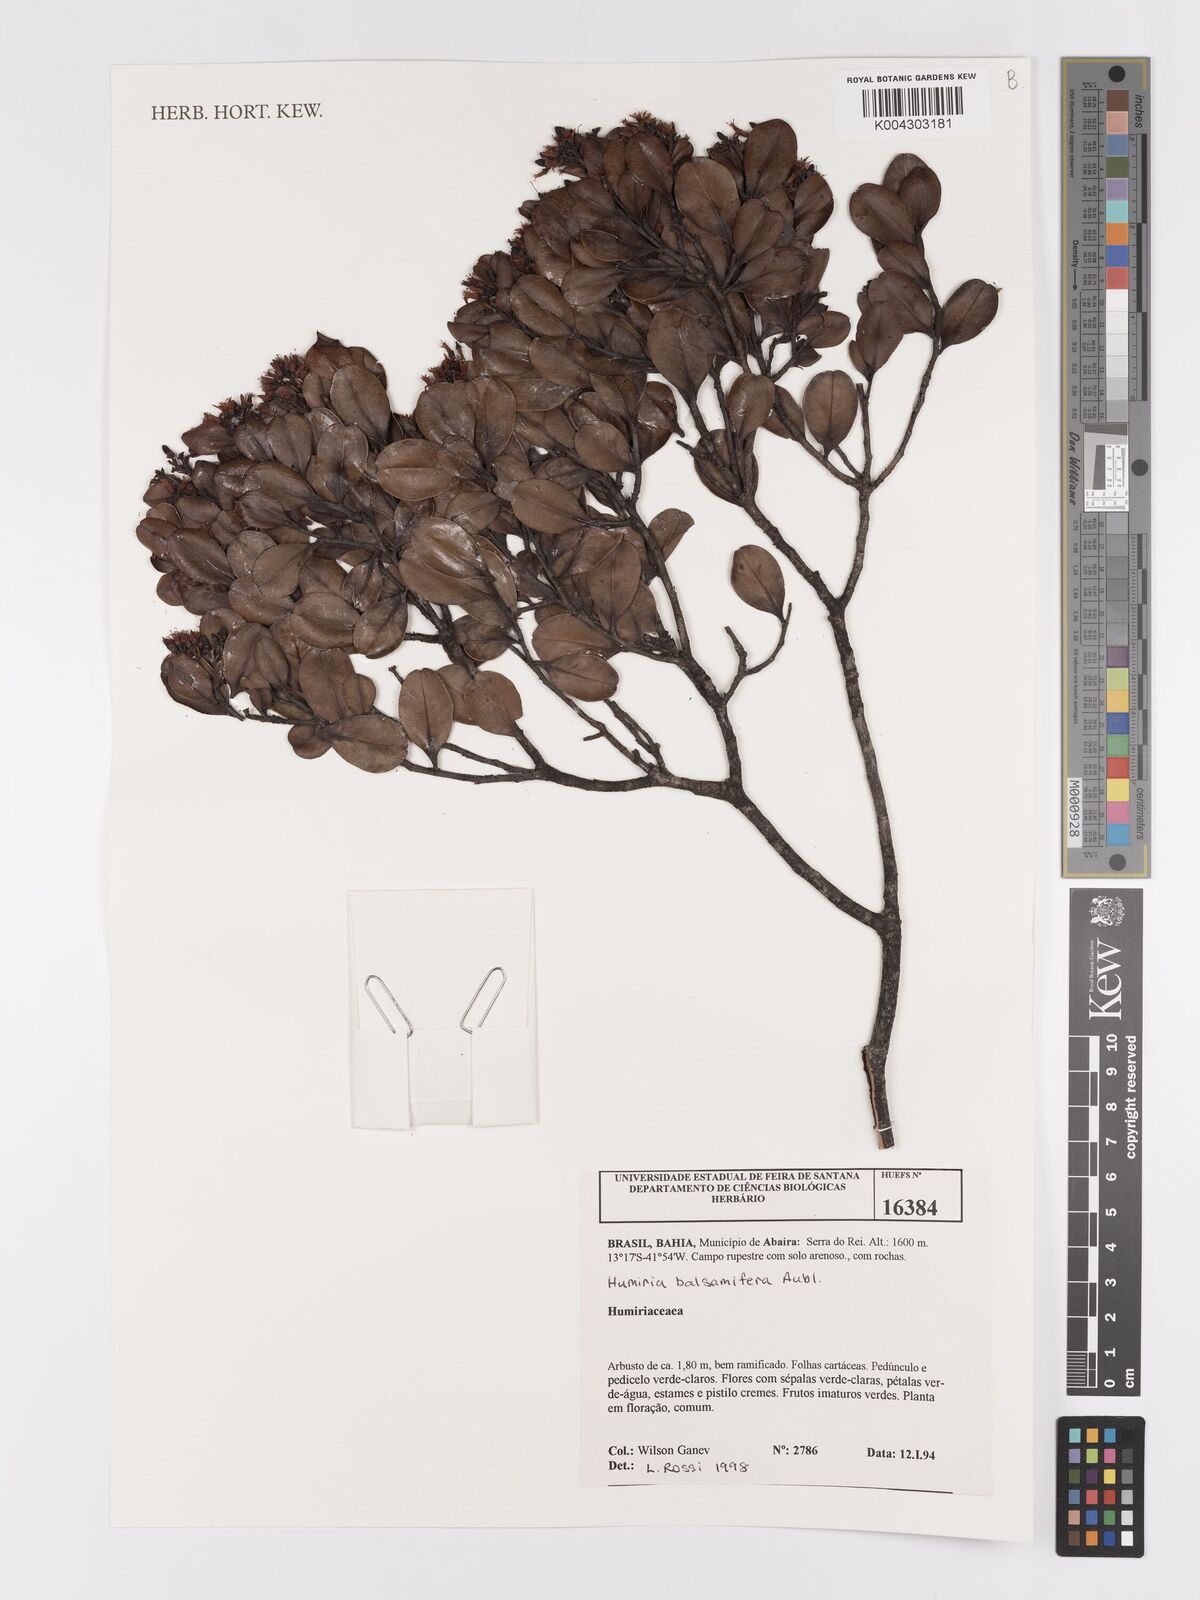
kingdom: Plantae
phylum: Tracheophyta
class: Magnoliopsida
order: Malpighiales
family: Humiriaceae
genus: Humiria
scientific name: Humiria parvifolia
